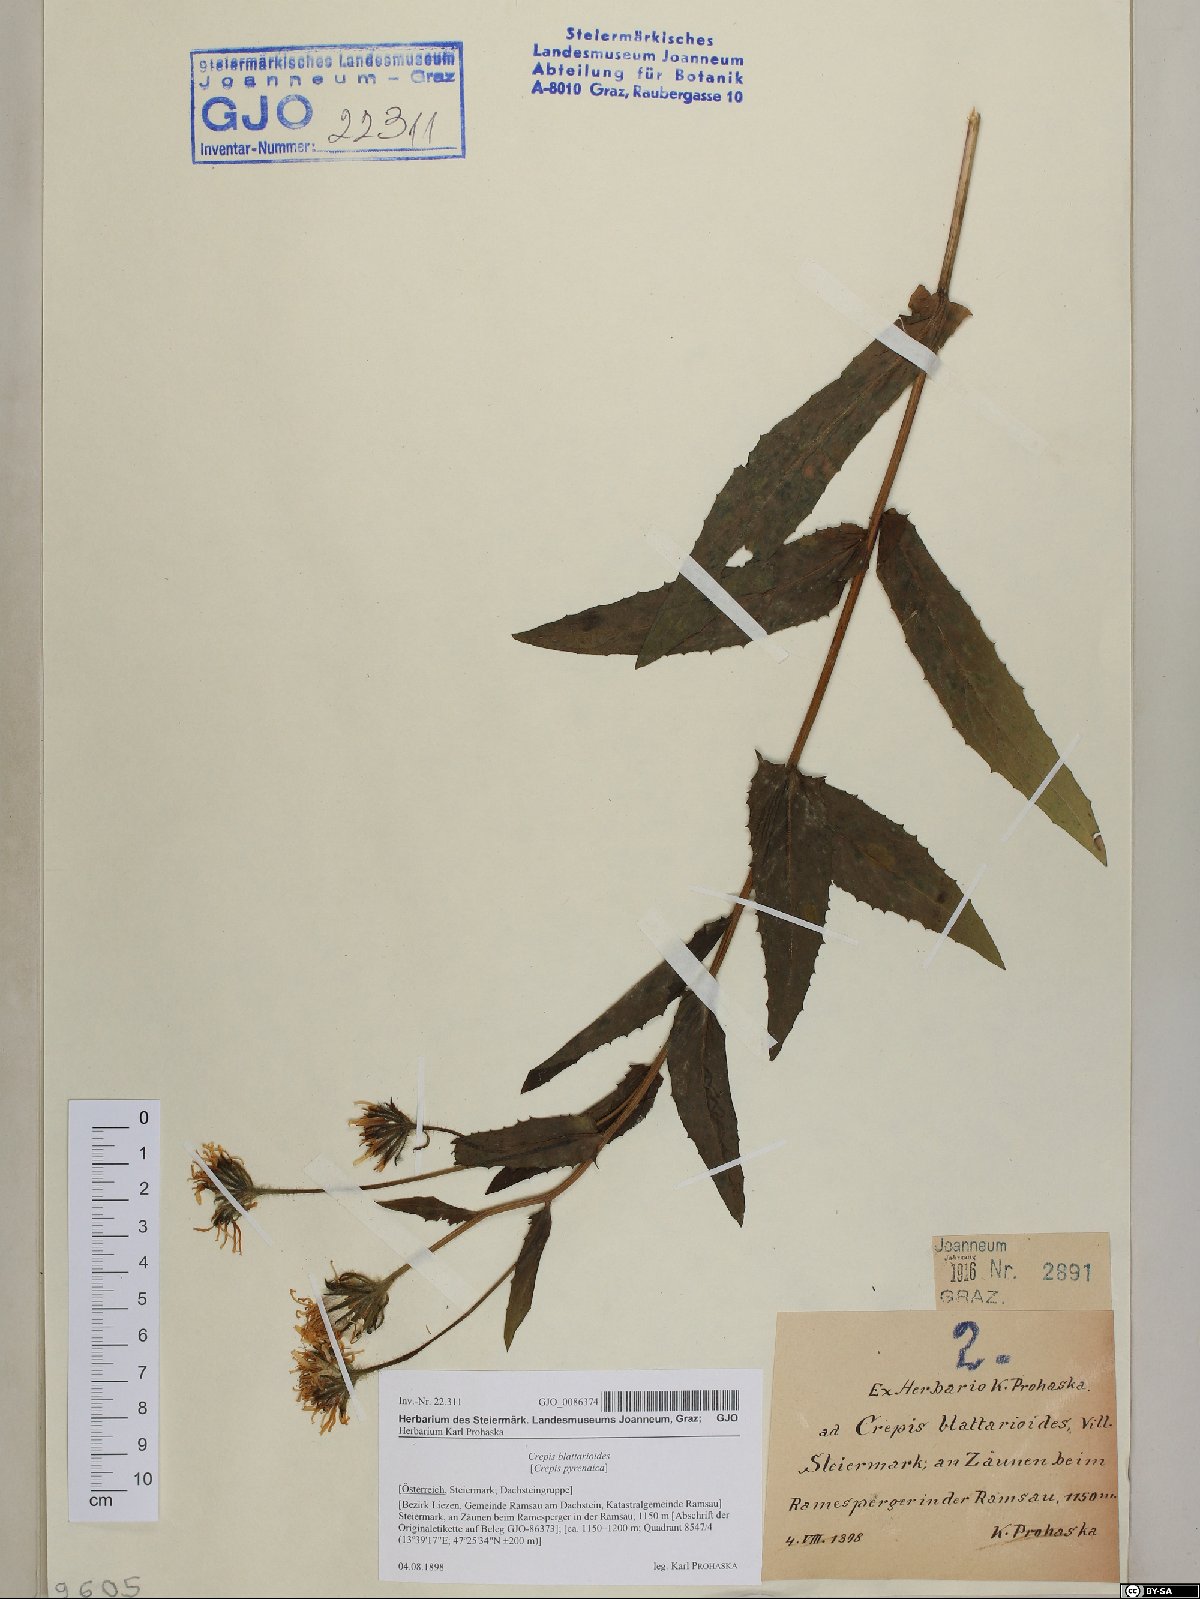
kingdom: Plantae
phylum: Tracheophyta
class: Magnoliopsida
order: Asterales
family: Asteraceae
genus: Crepis
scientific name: Crepis blattarioides
